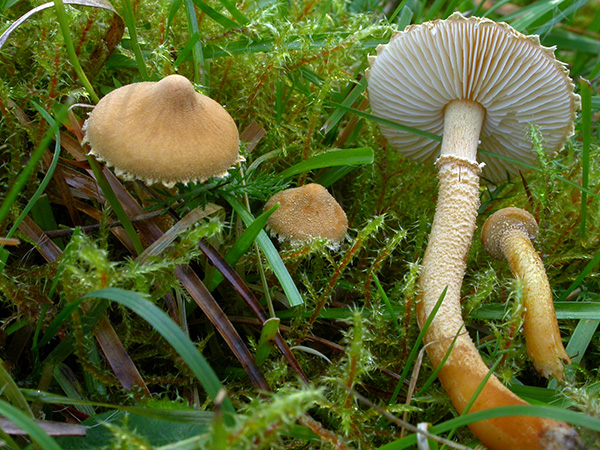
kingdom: Fungi
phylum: Basidiomycota
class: Agaricomycetes
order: Agaricales
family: Tricholomataceae
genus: Cystoderma
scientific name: Cystoderma amianthinum
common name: okkergul grynhat
